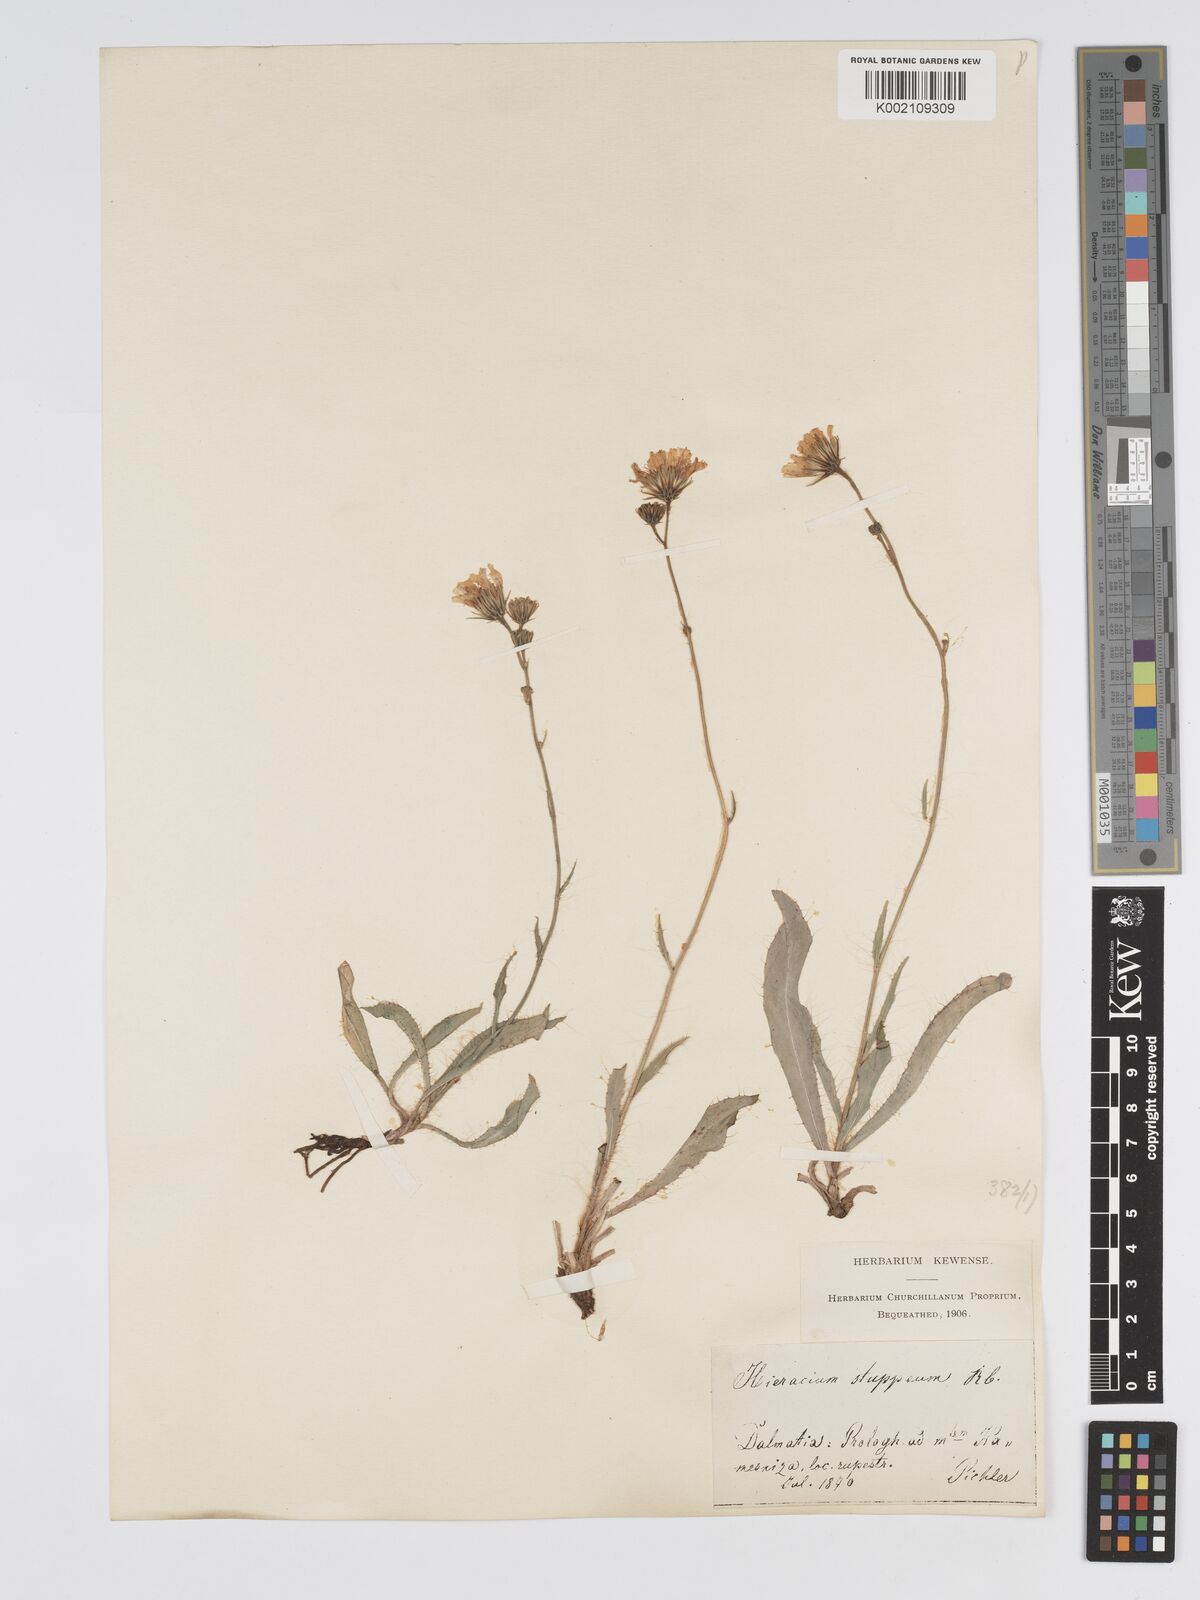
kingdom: Plantae
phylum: Tracheophyta
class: Magnoliopsida
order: Asterales
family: Asteraceae
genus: Hieracium
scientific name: Hieracium heterogynum
